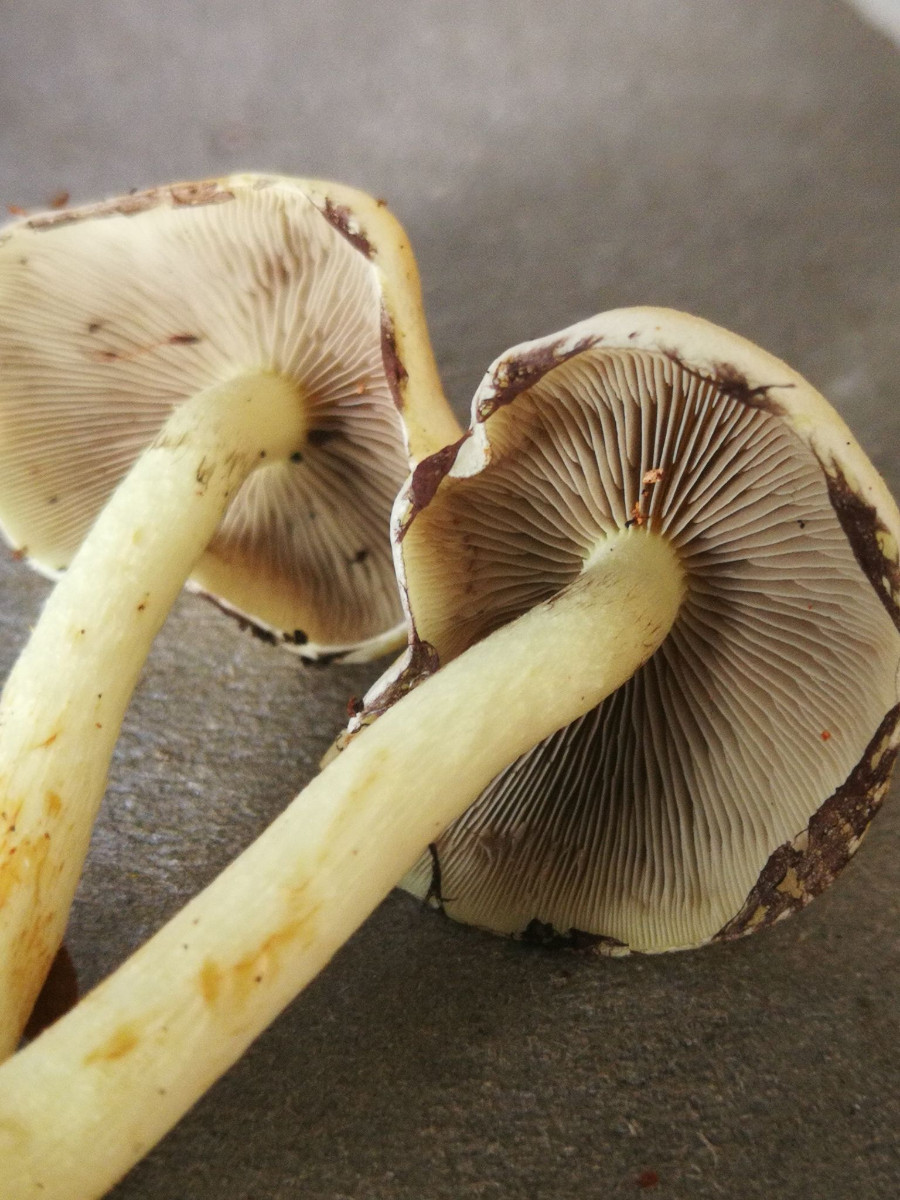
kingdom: Fungi
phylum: Basidiomycota
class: Agaricomycetes
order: Agaricales
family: Strophariaceae
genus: Hypholoma
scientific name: Hypholoma fasciculare
